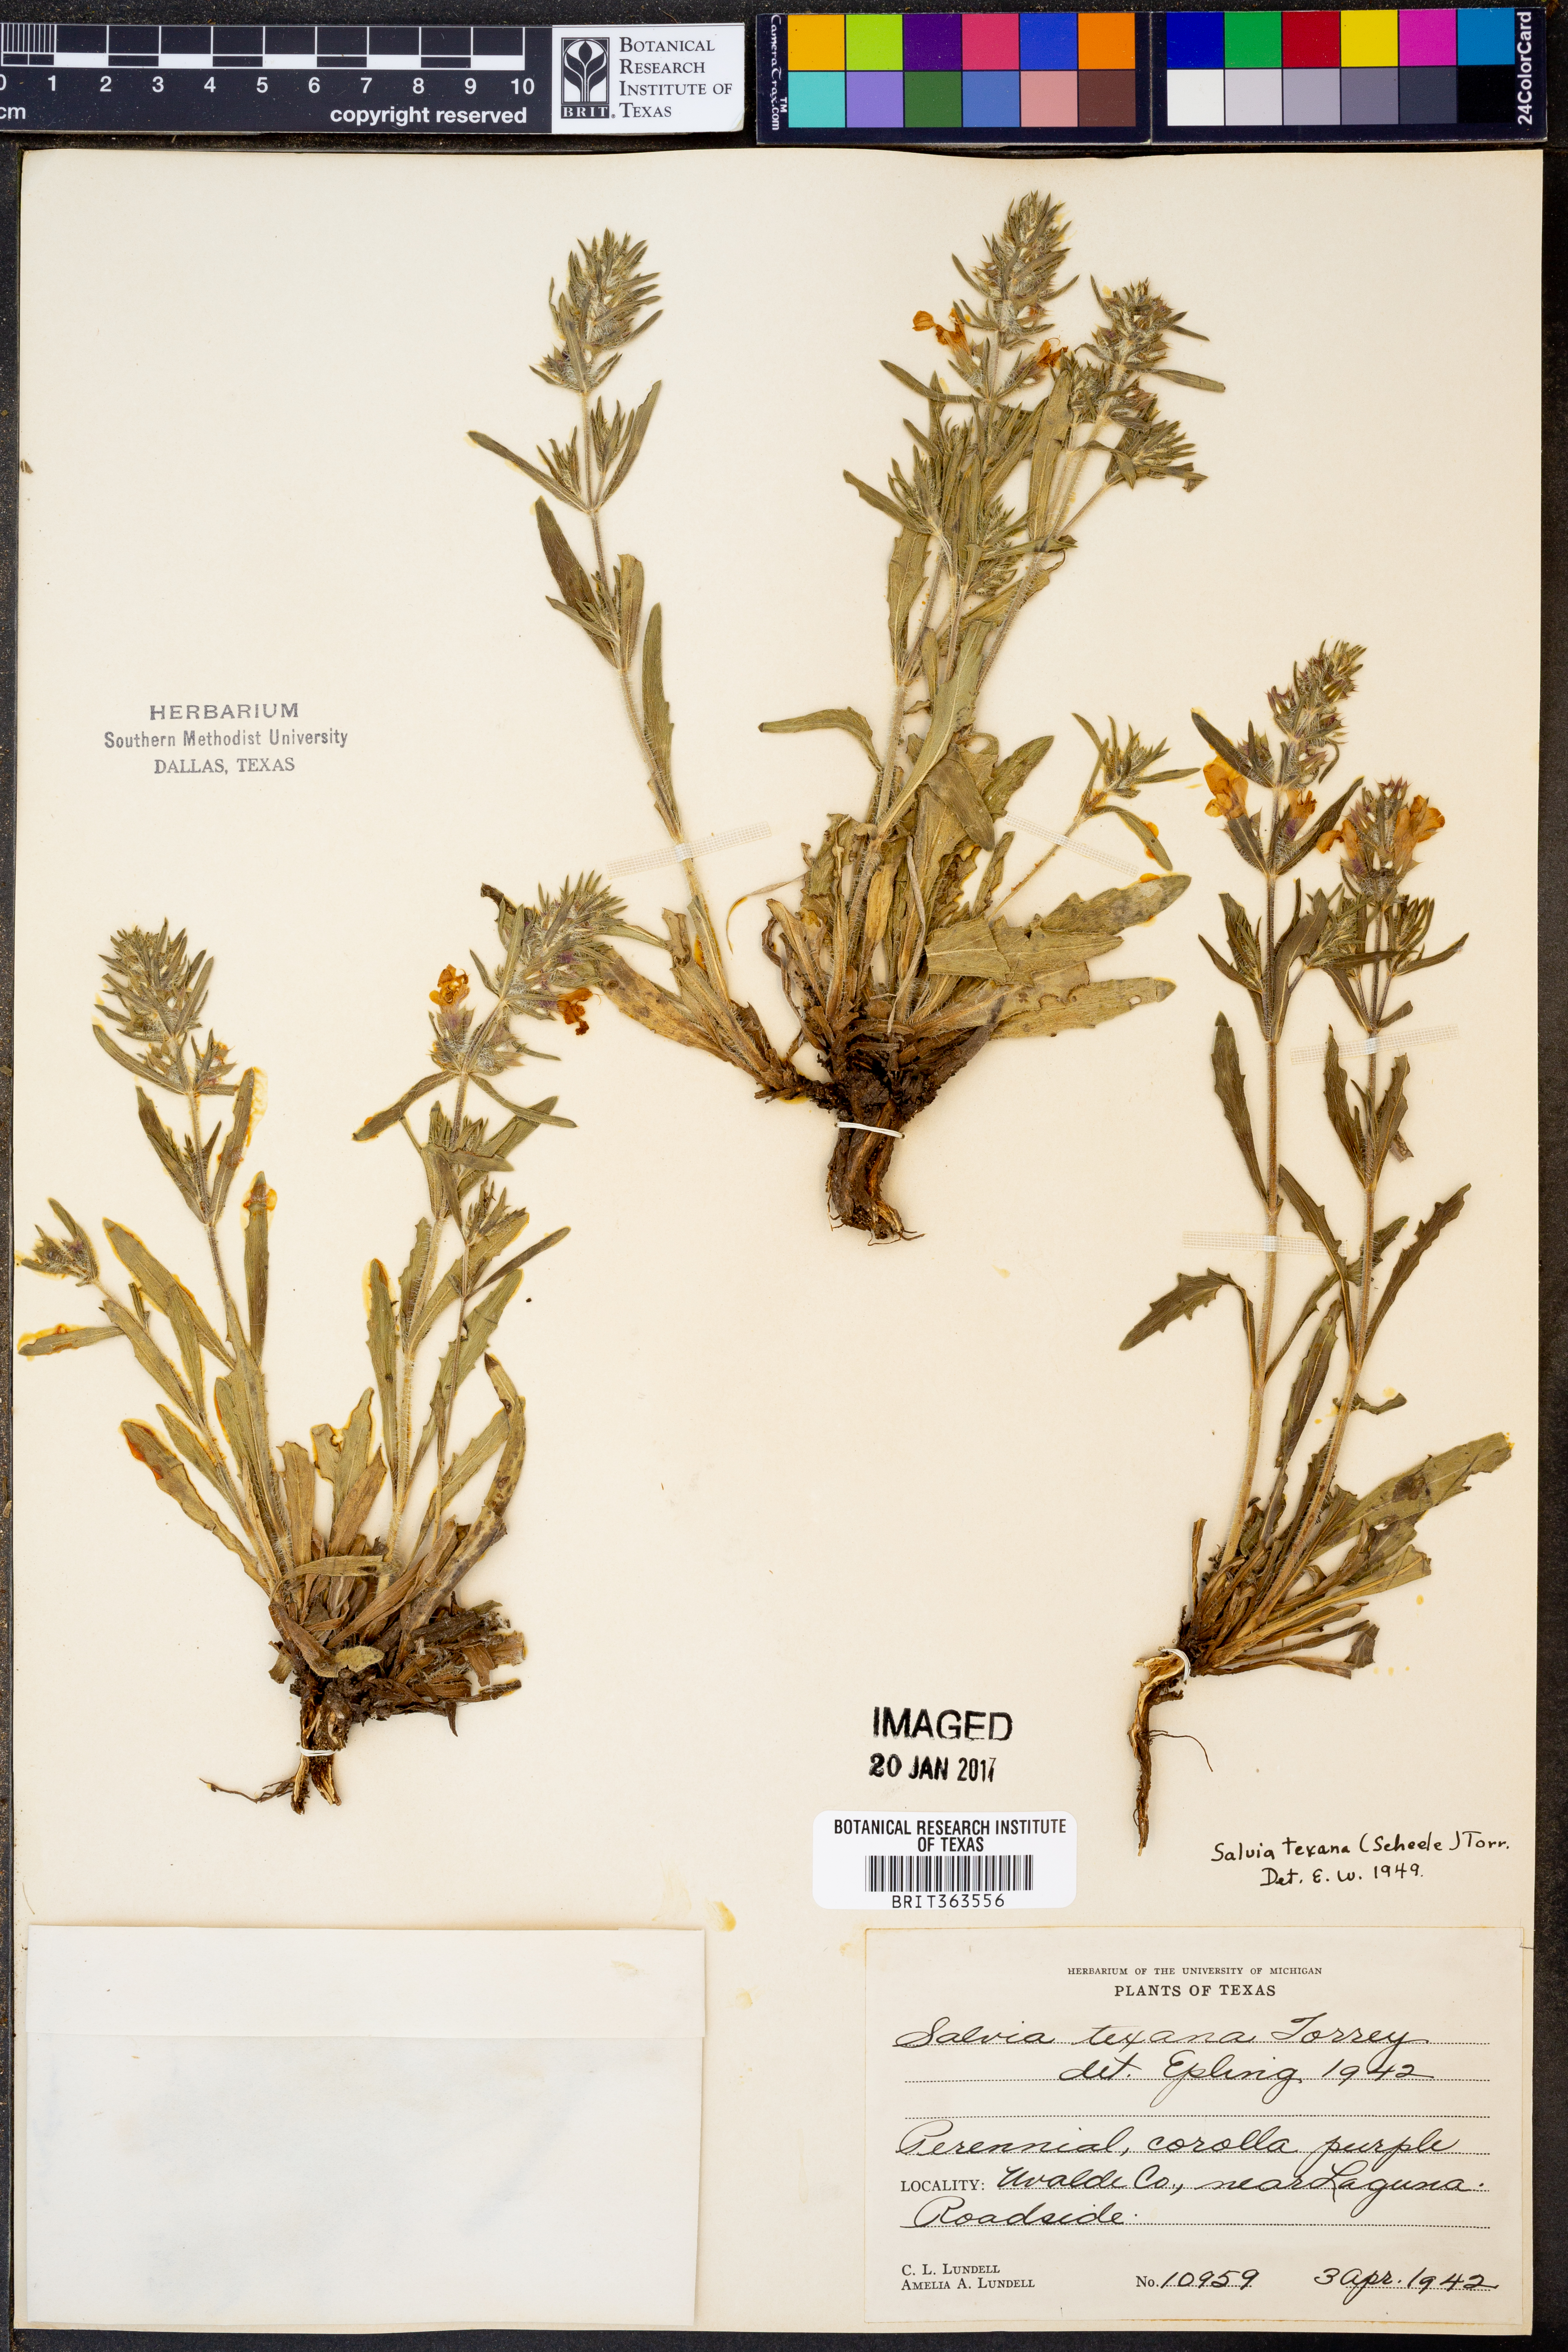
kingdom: Plantae
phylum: Tracheophyta
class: Magnoliopsida
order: Lamiales
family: Lamiaceae
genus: Salvia
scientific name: Salvia texana
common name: Texas sage
